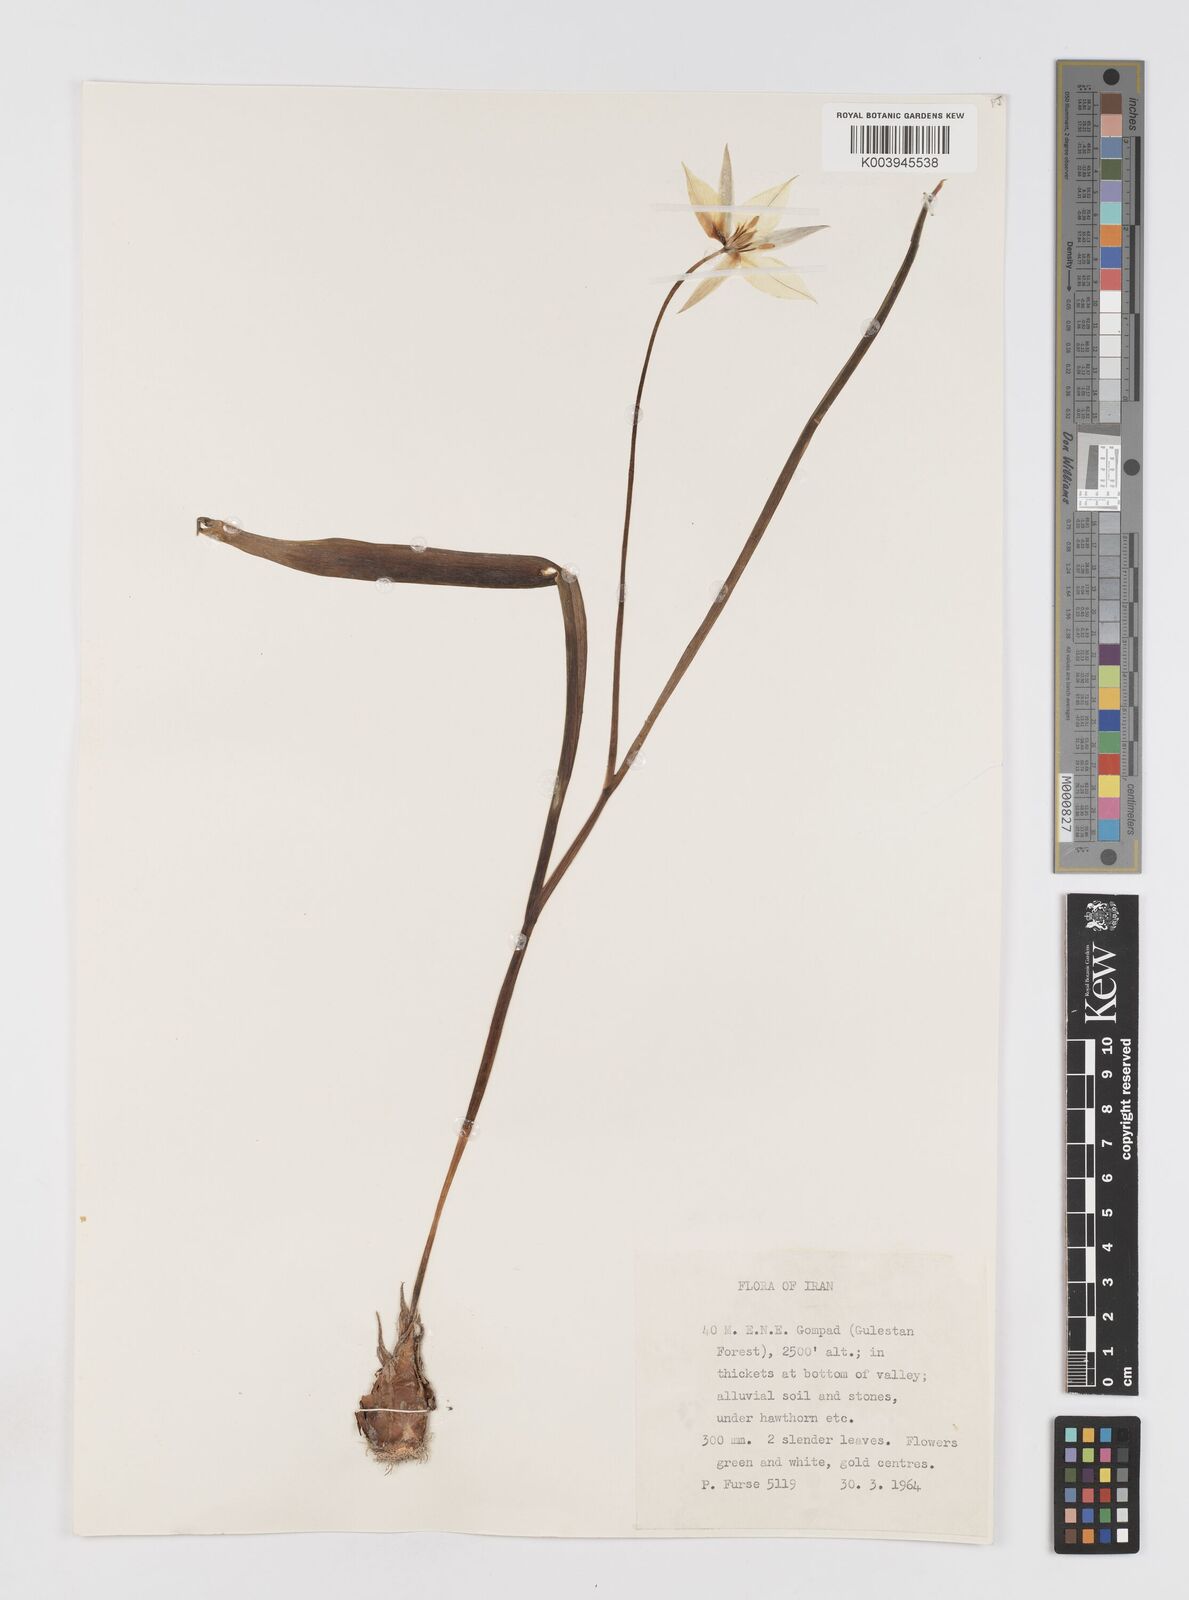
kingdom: Plantae
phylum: Tracheophyta
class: Liliopsida
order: Liliales
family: Liliaceae
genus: Tulipa
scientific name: Tulipa biflora
